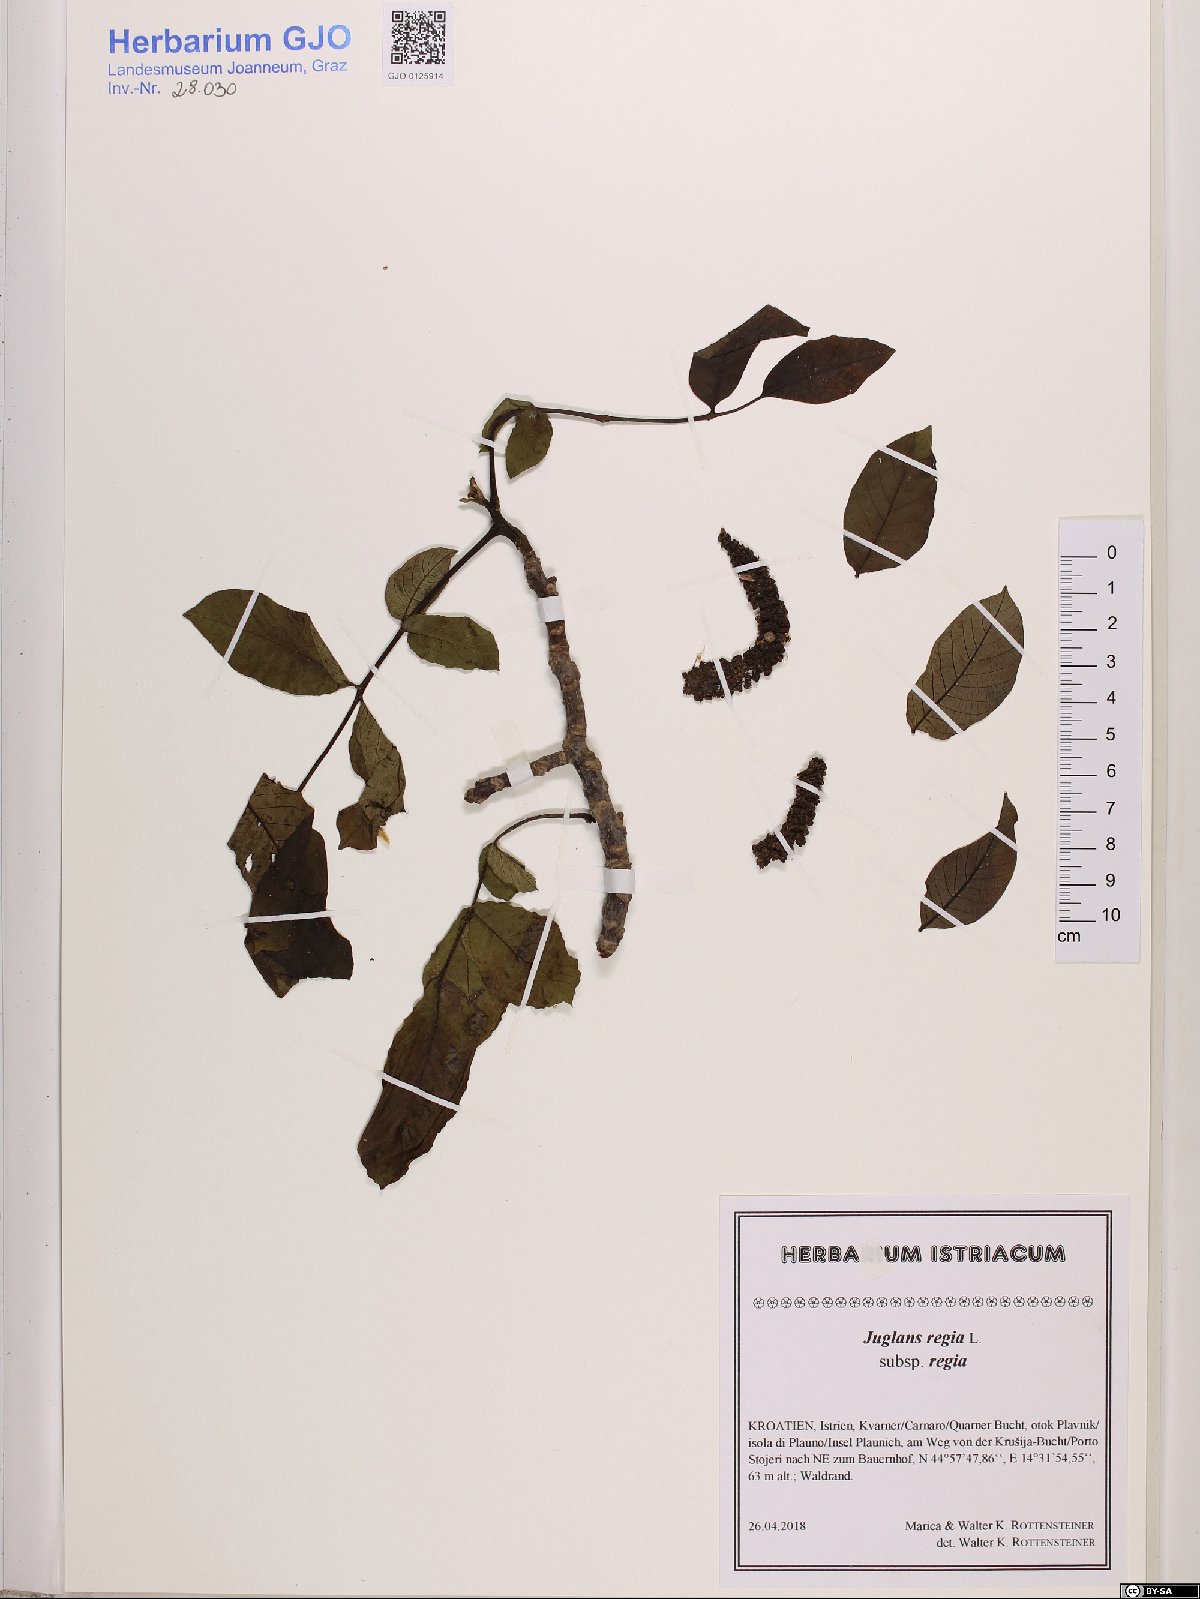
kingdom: Plantae
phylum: Tracheophyta
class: Magnoliopsida
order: Fagales
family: Juglandaceae
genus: Juglans
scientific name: Juglans regia
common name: Walnut
